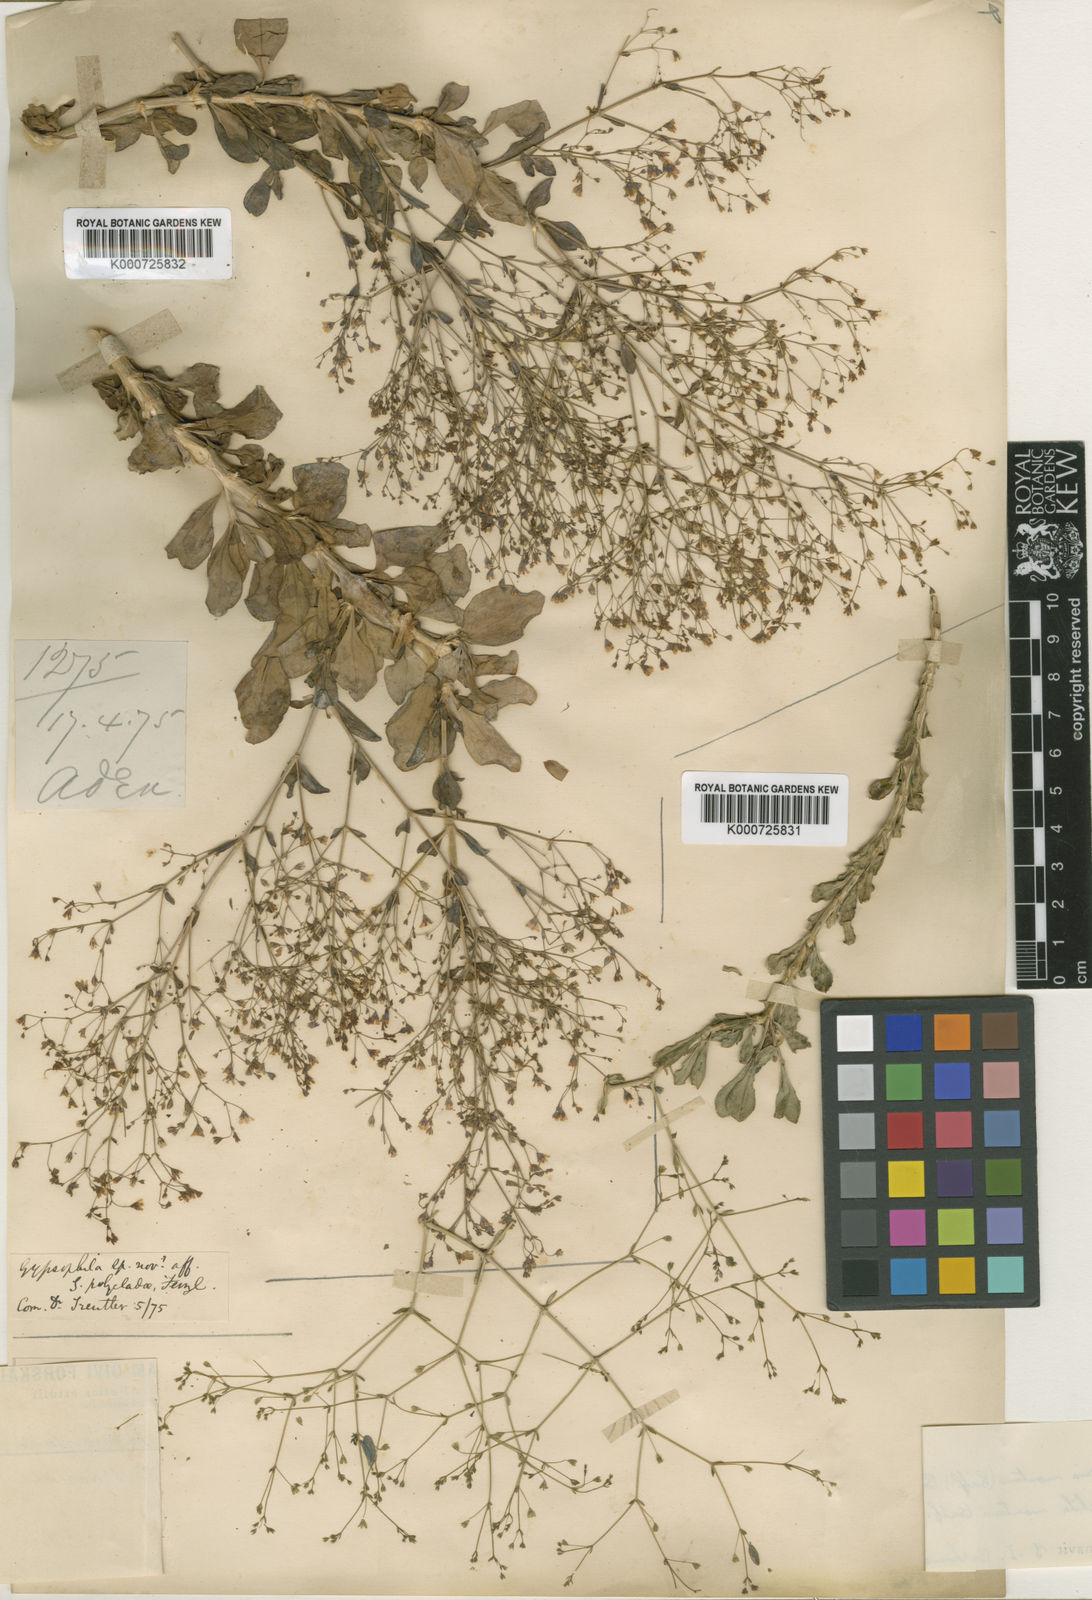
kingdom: Plantae
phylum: Tracheophyta
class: Magnoliopsida
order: Caryophyllales
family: Caryophyllaceae
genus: Petroana
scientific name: Petroana montana
